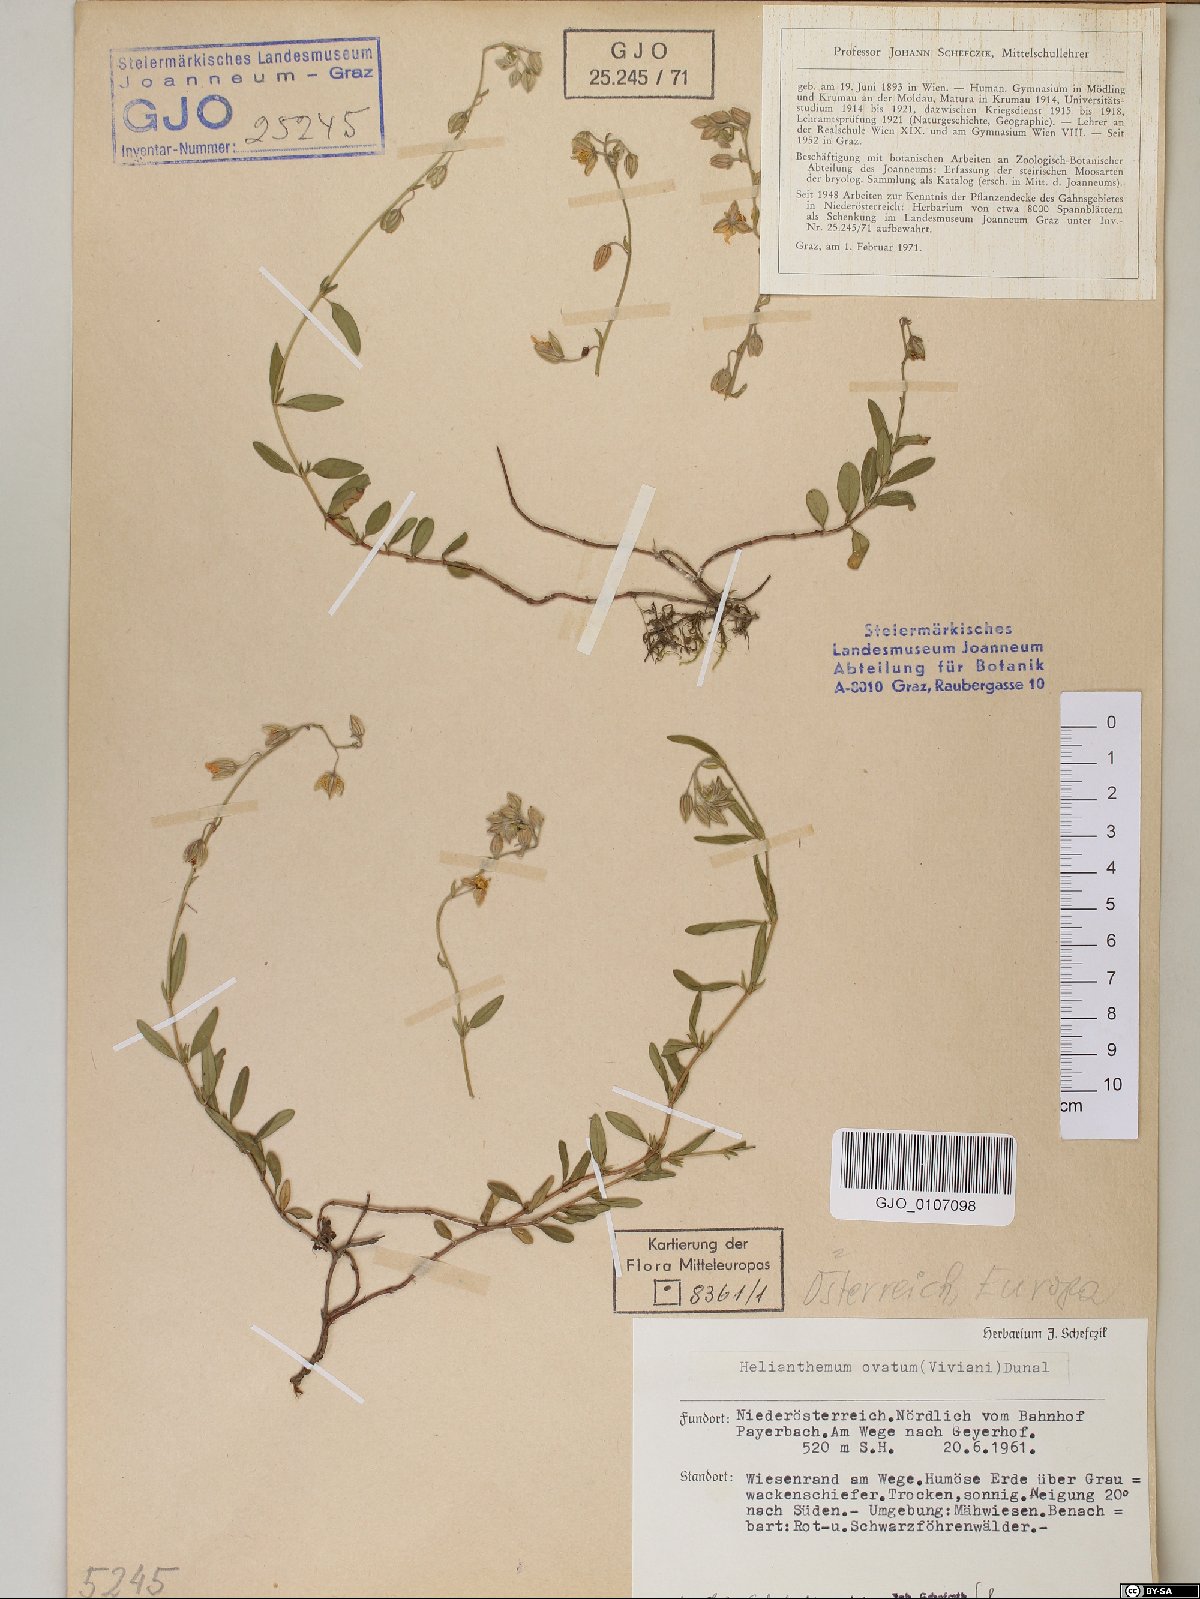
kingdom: Plantae
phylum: Tracheophyta
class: Magnoliopsida
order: Malvales
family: Cistaceae
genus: Helianthemum
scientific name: Helianthemum nummularium
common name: Common rock-rose
